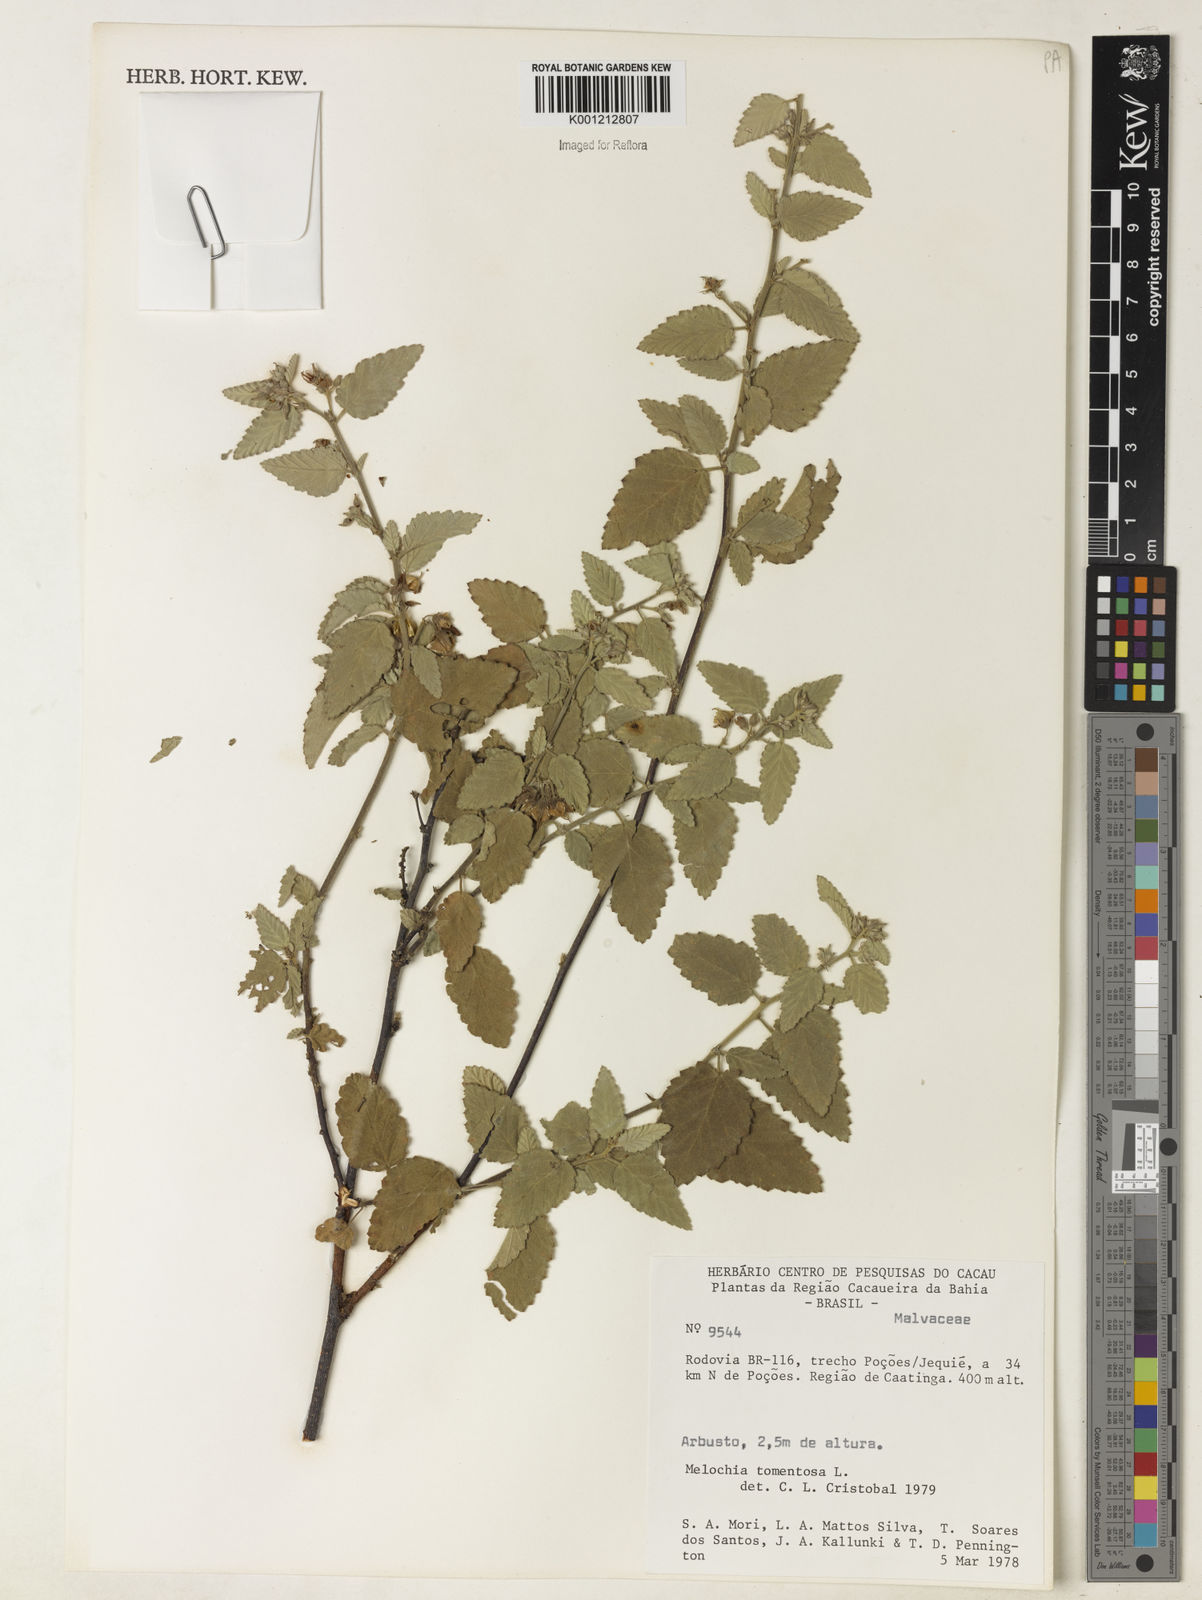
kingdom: Plantae
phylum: Tracheophyta
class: Magnoliopsida
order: Malvales
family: Malvaceae
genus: Melochia
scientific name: Melochia tomentosa
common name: Black torch
